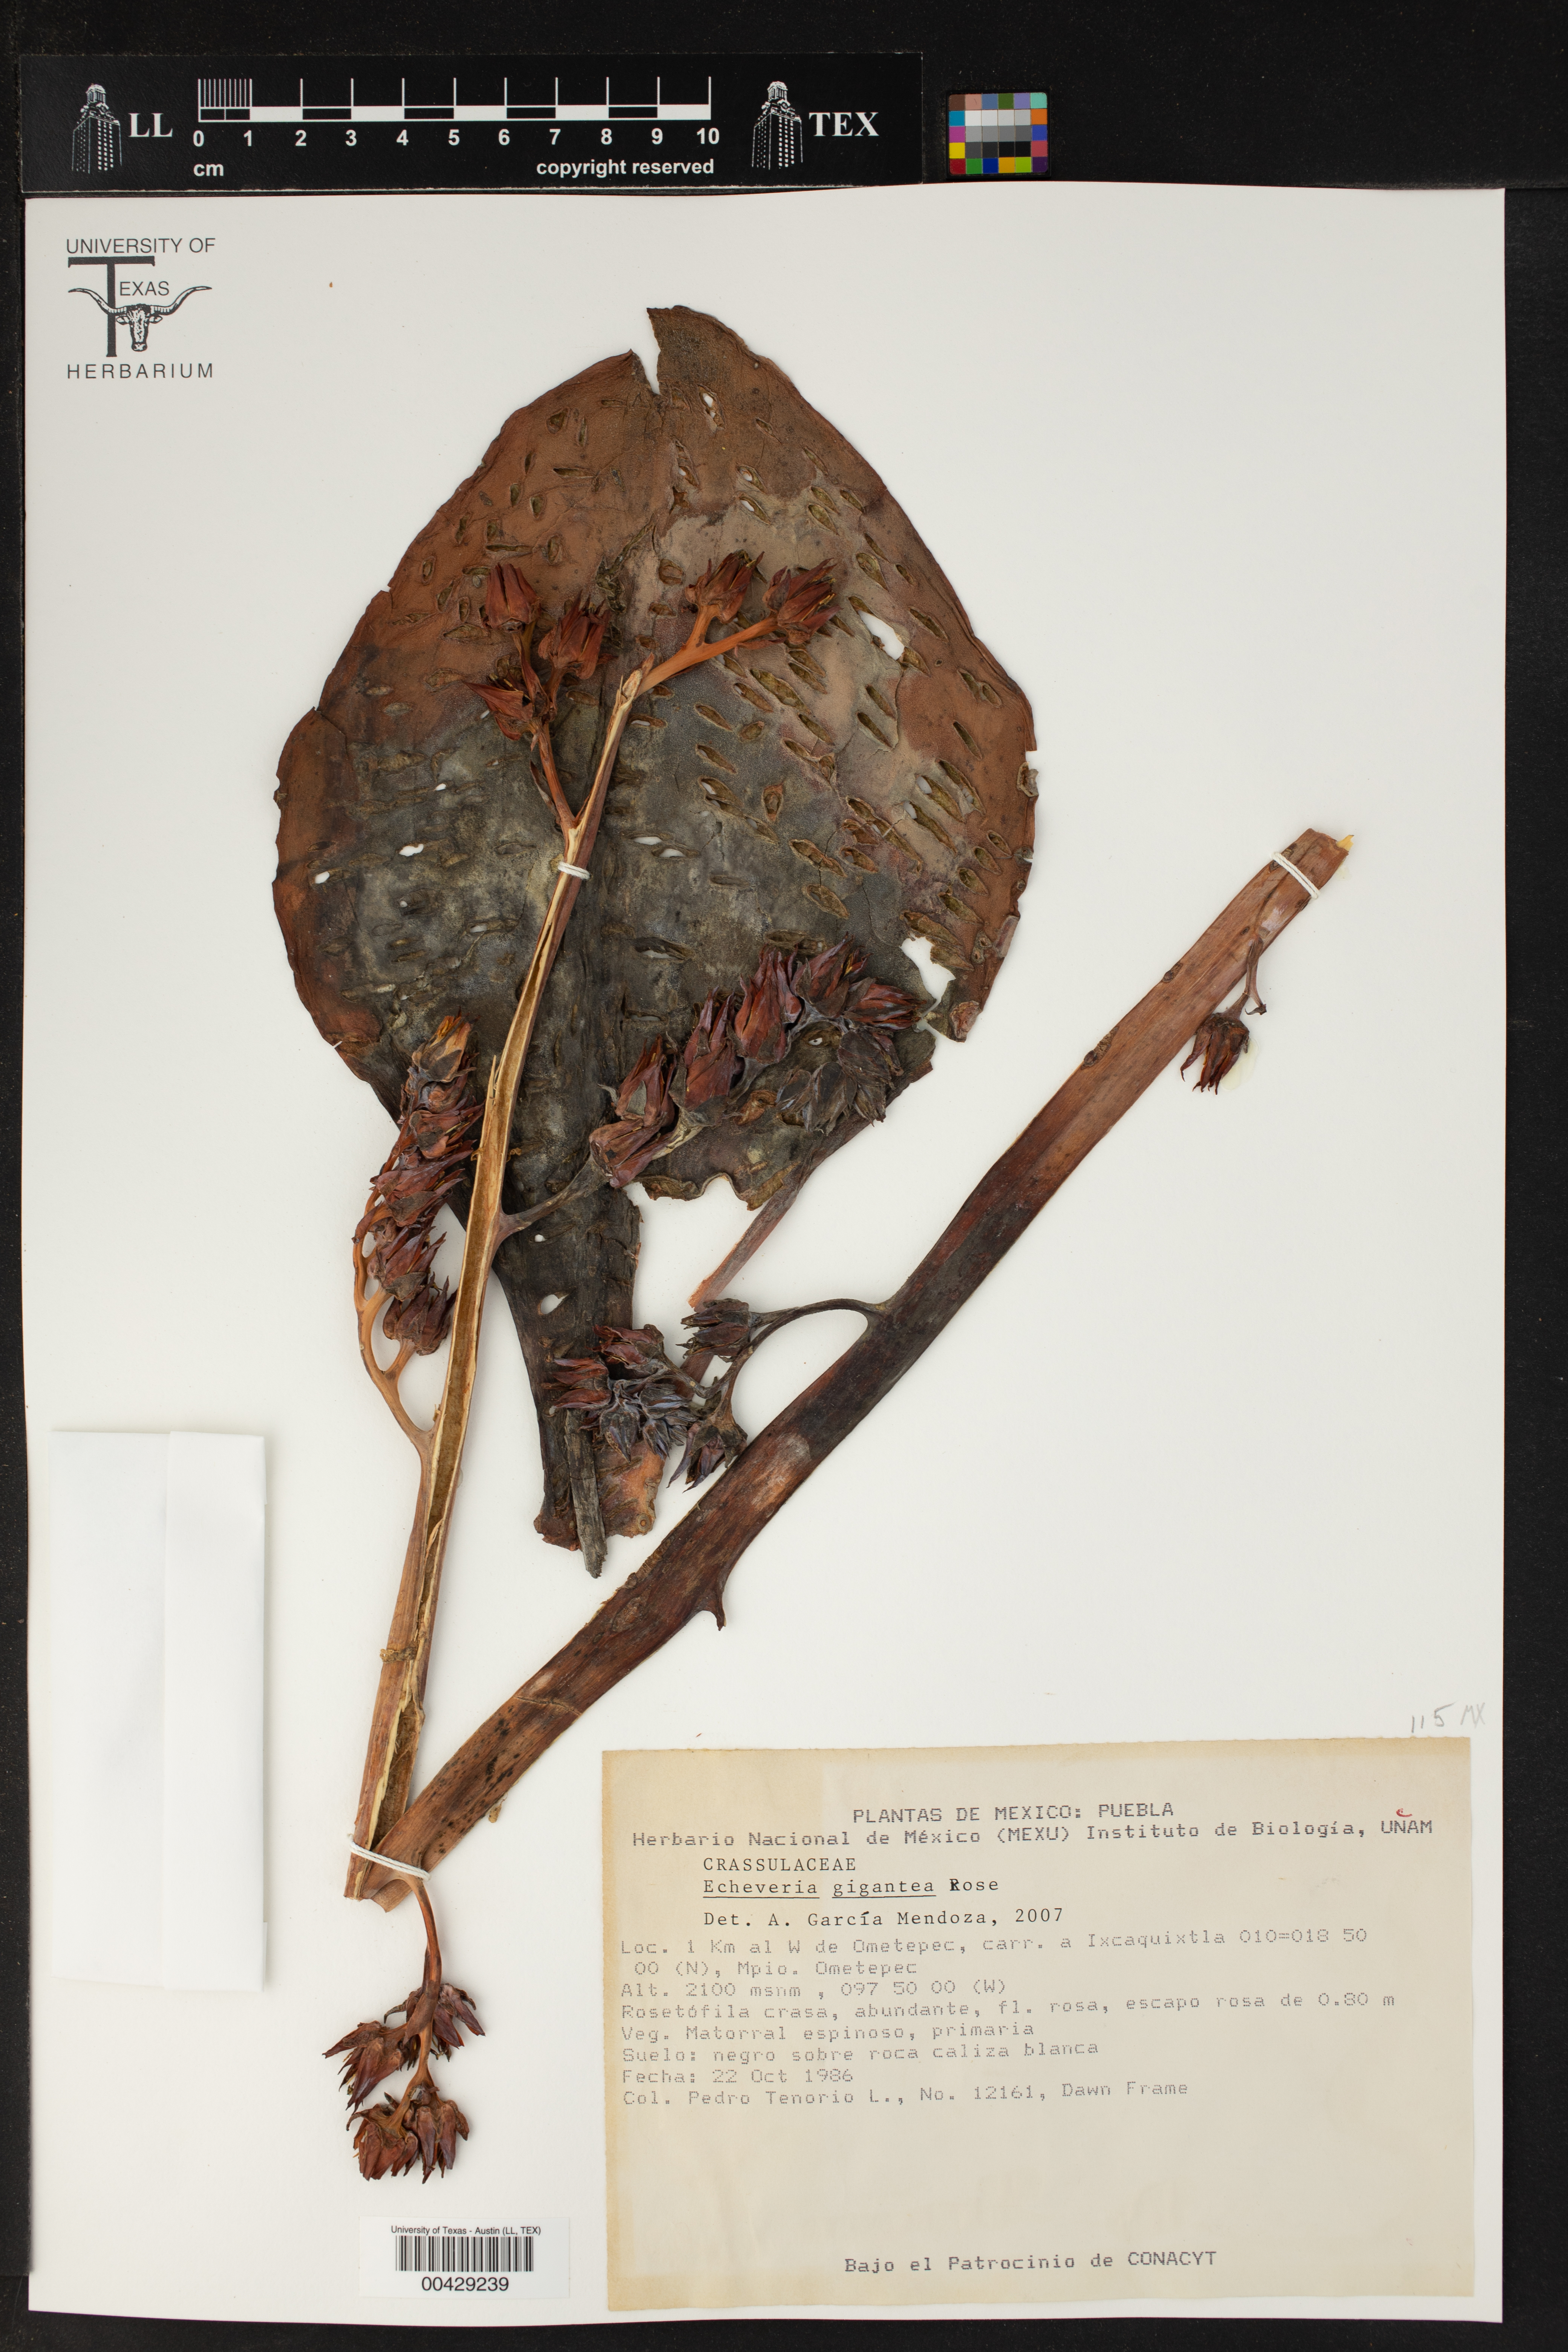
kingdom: Plantae
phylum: Tracheophyta
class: Magnoliopsida
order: Saxifragales
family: Crassulaceae
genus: Echeveria
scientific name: Echeveria gigantea
